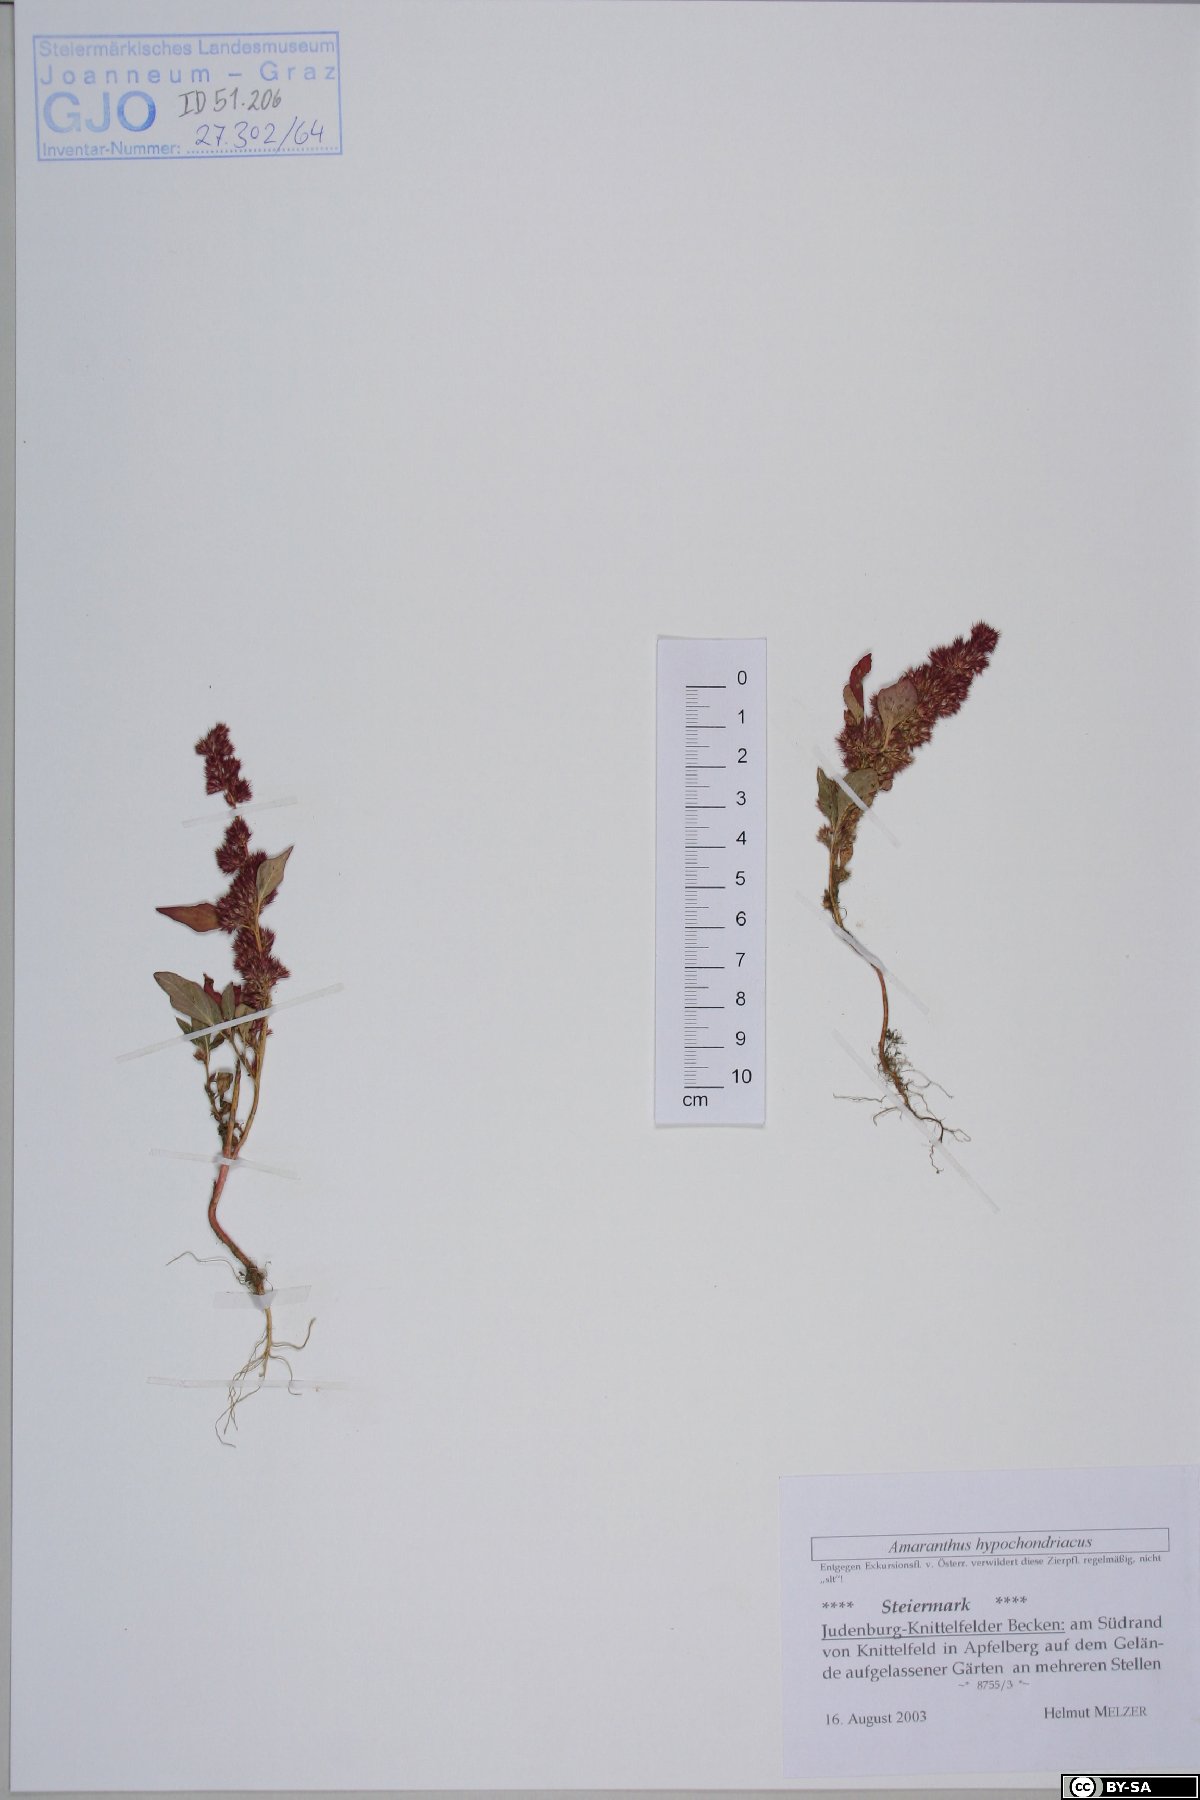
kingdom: Plantae
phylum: Tracheophyta
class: Magnoliopsida
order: Caryophyllales
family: Amaranthaceae
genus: Amaranthus
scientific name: Amaranthus hypochondriacus
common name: Prince's-feather
